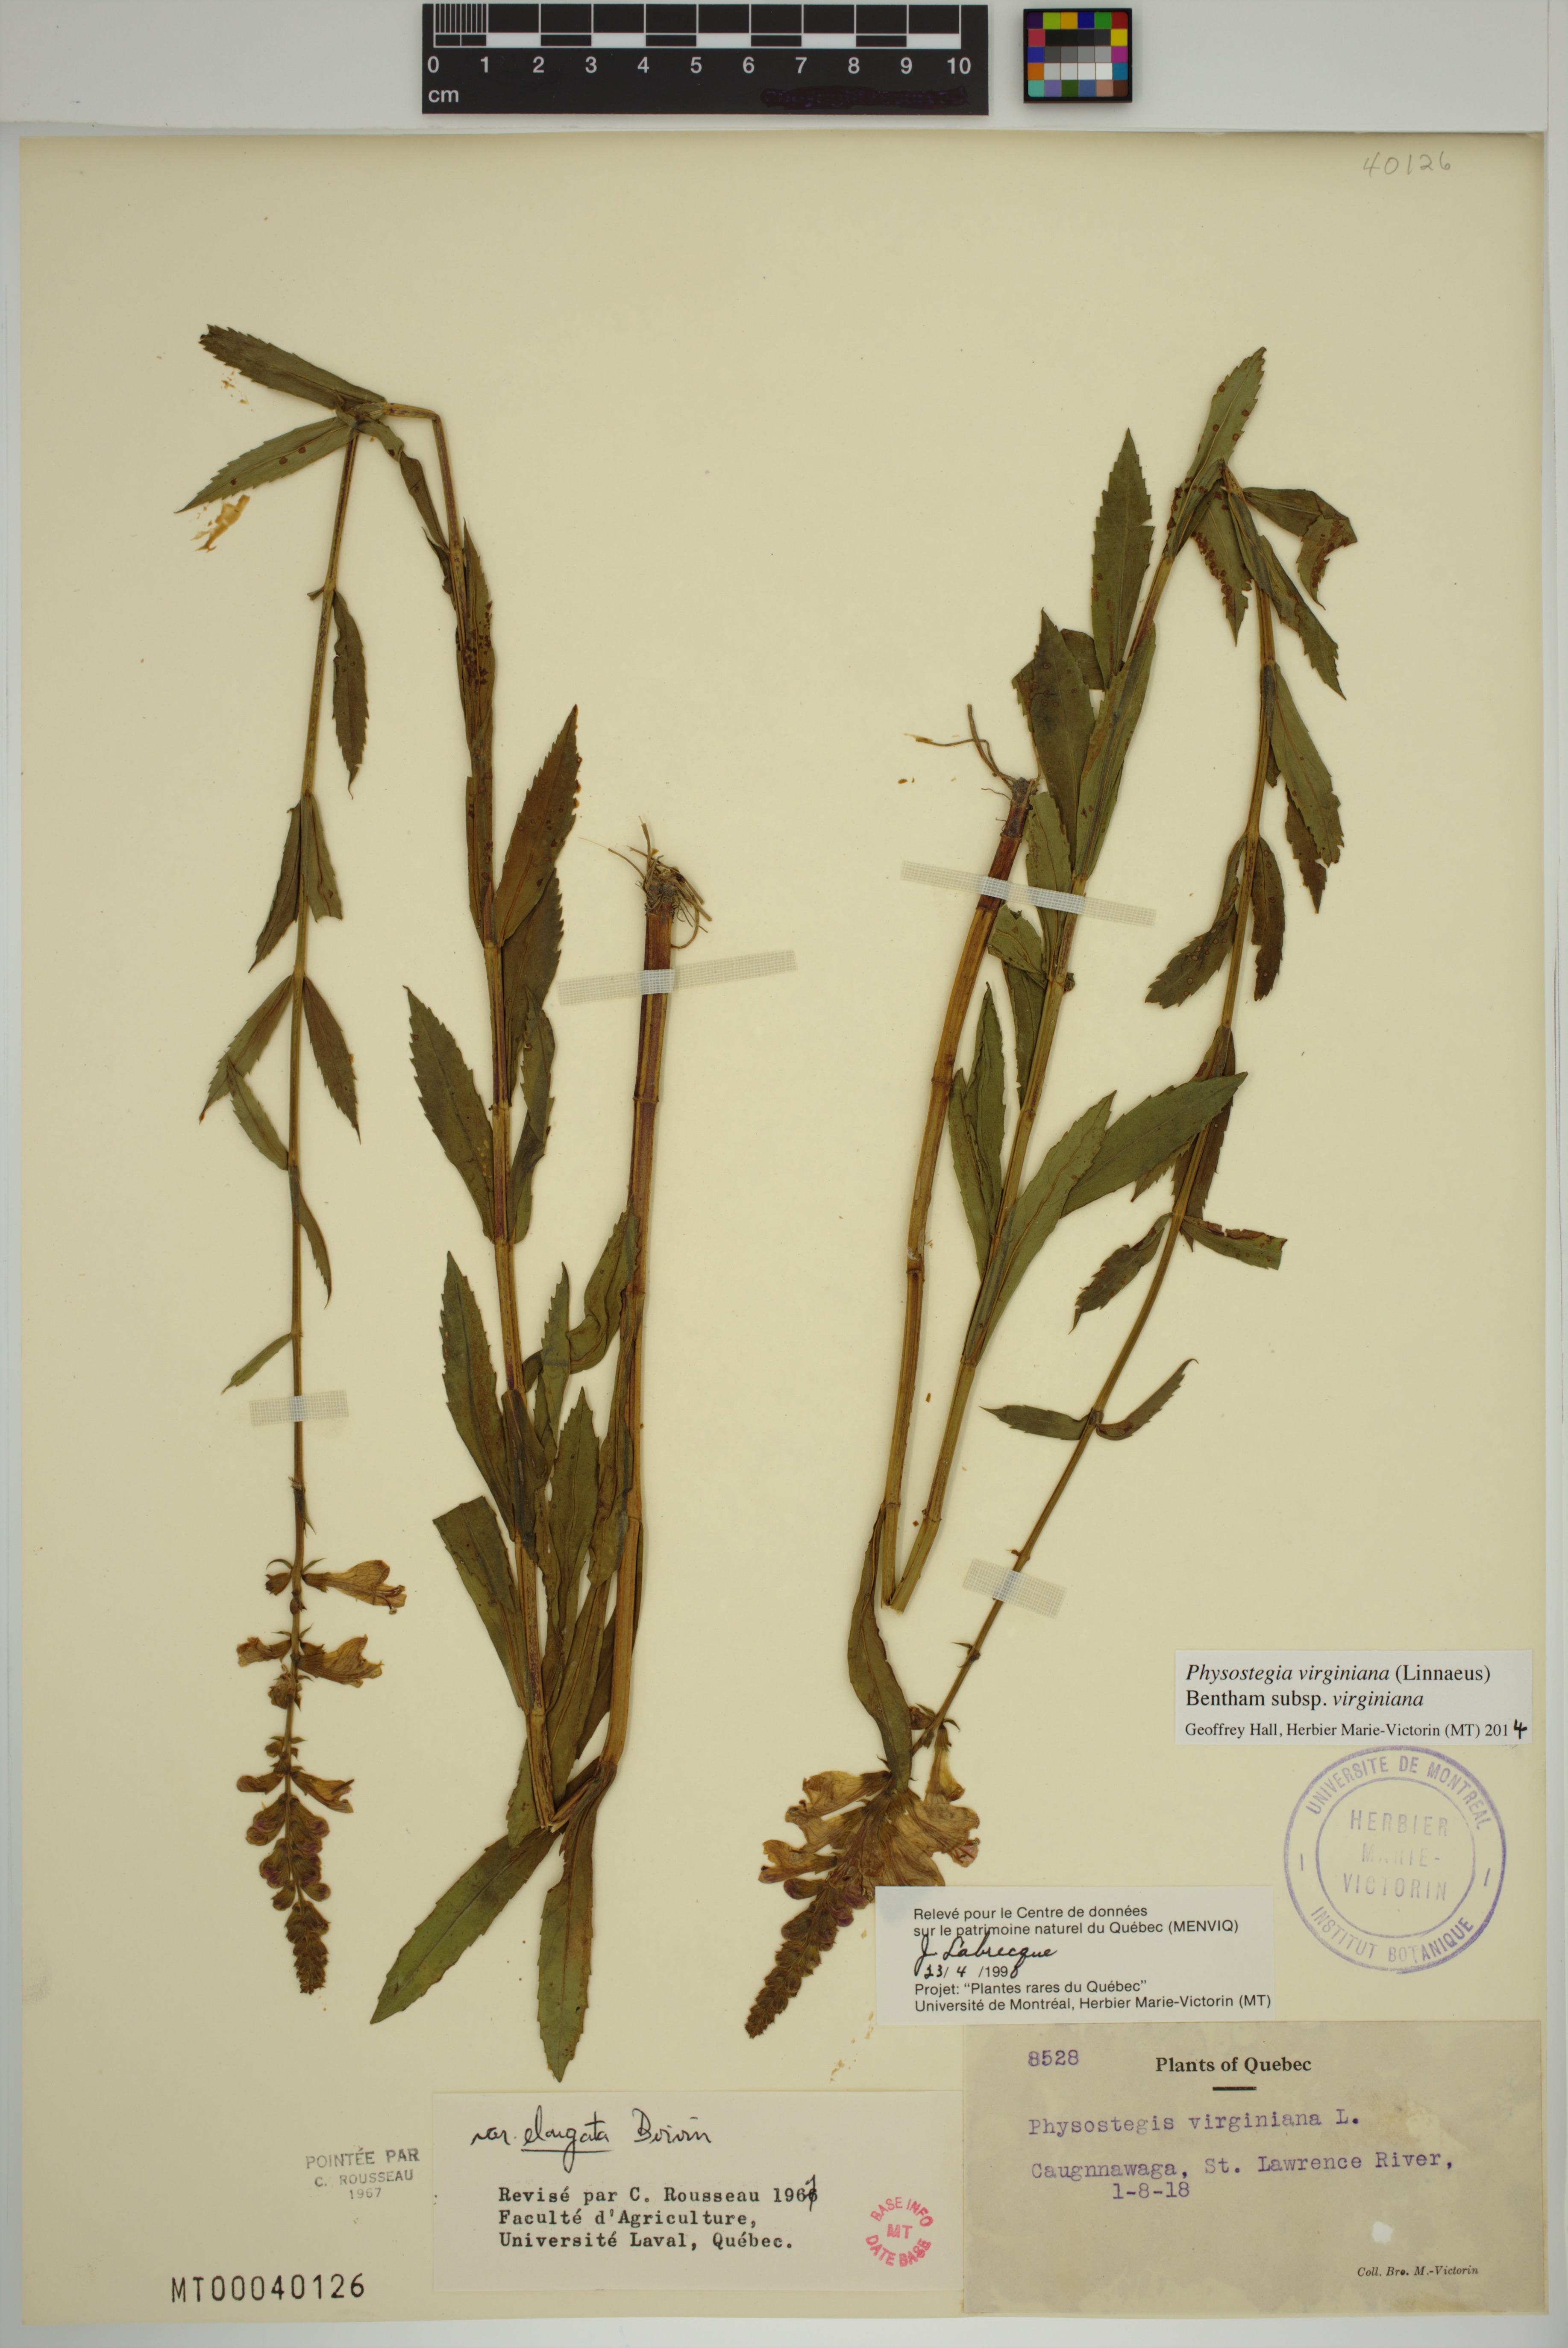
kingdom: Plantae
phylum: Tracheophyta
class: Magnoliopsida
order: Lamiales
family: Lamiaceae
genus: Physostegia
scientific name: Physostegia virginiana
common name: Obedient-plant
